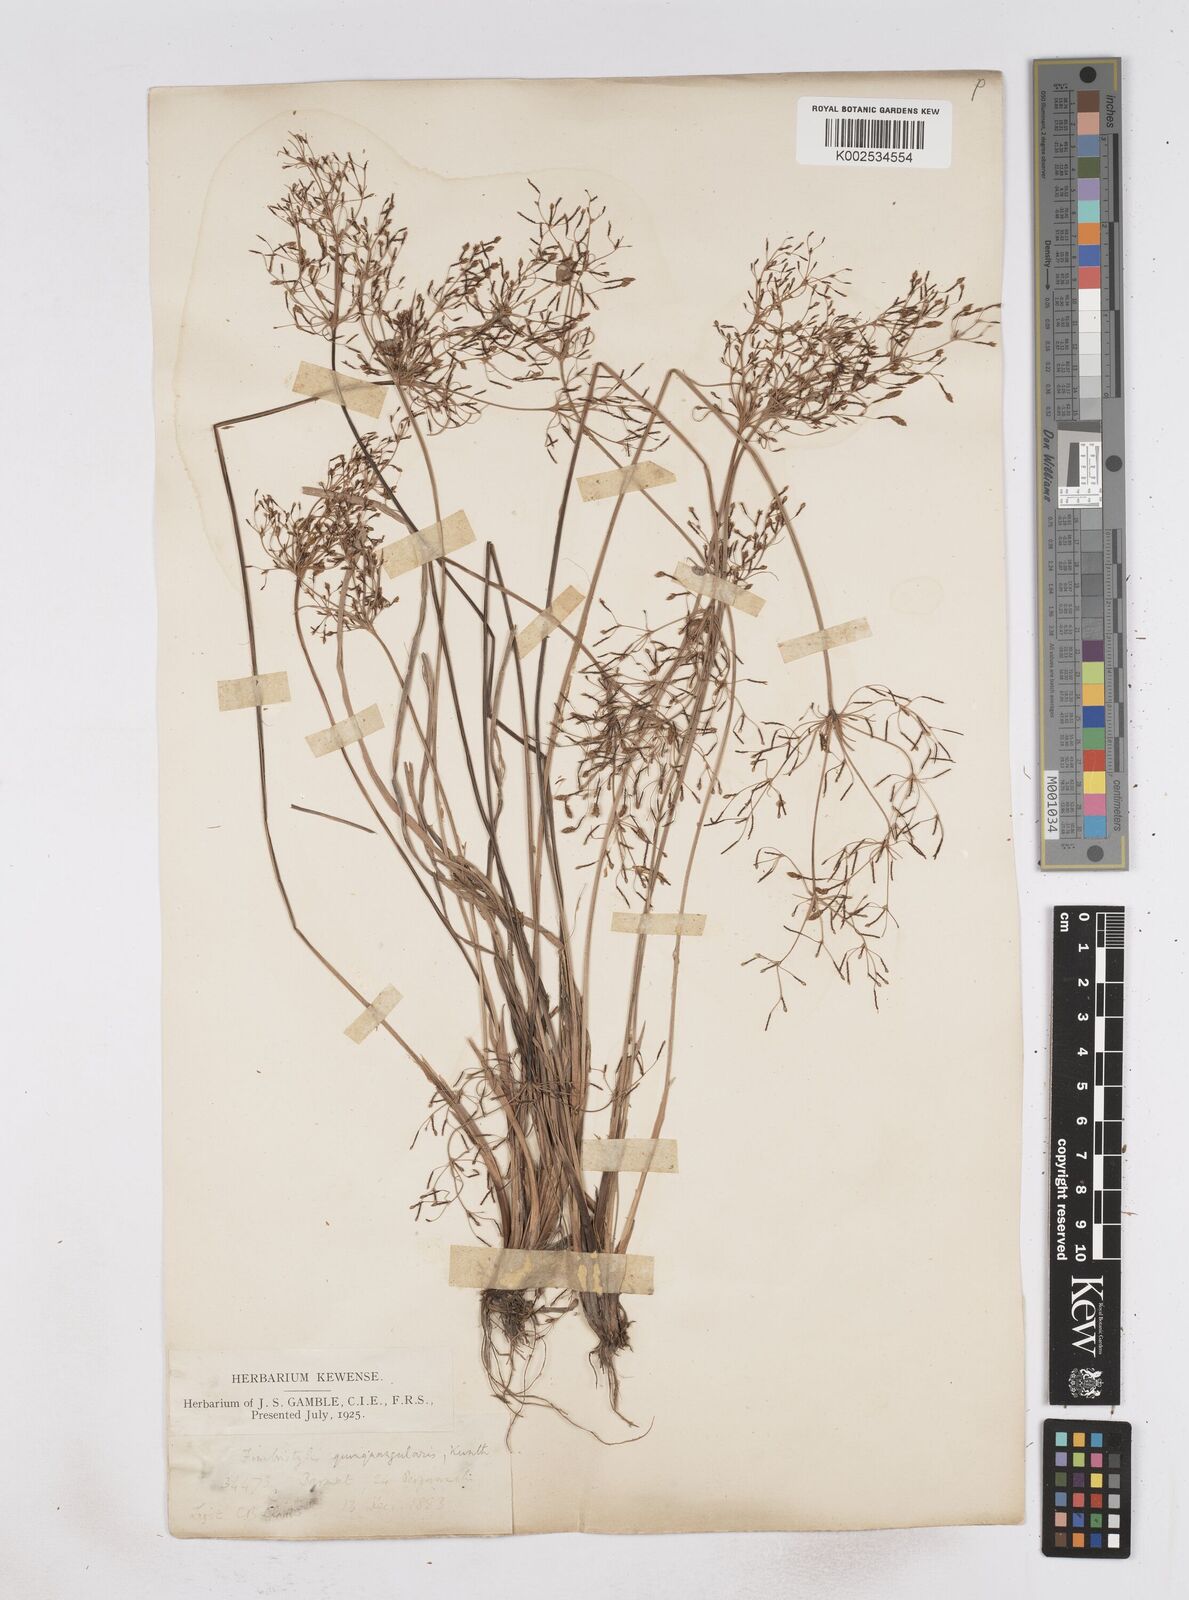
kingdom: Plantae
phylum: Tracheophyta
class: Liliopsida
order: Poales
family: Cyperaceae
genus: Fimbristylis
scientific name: Fimbristylis quinquangularis
